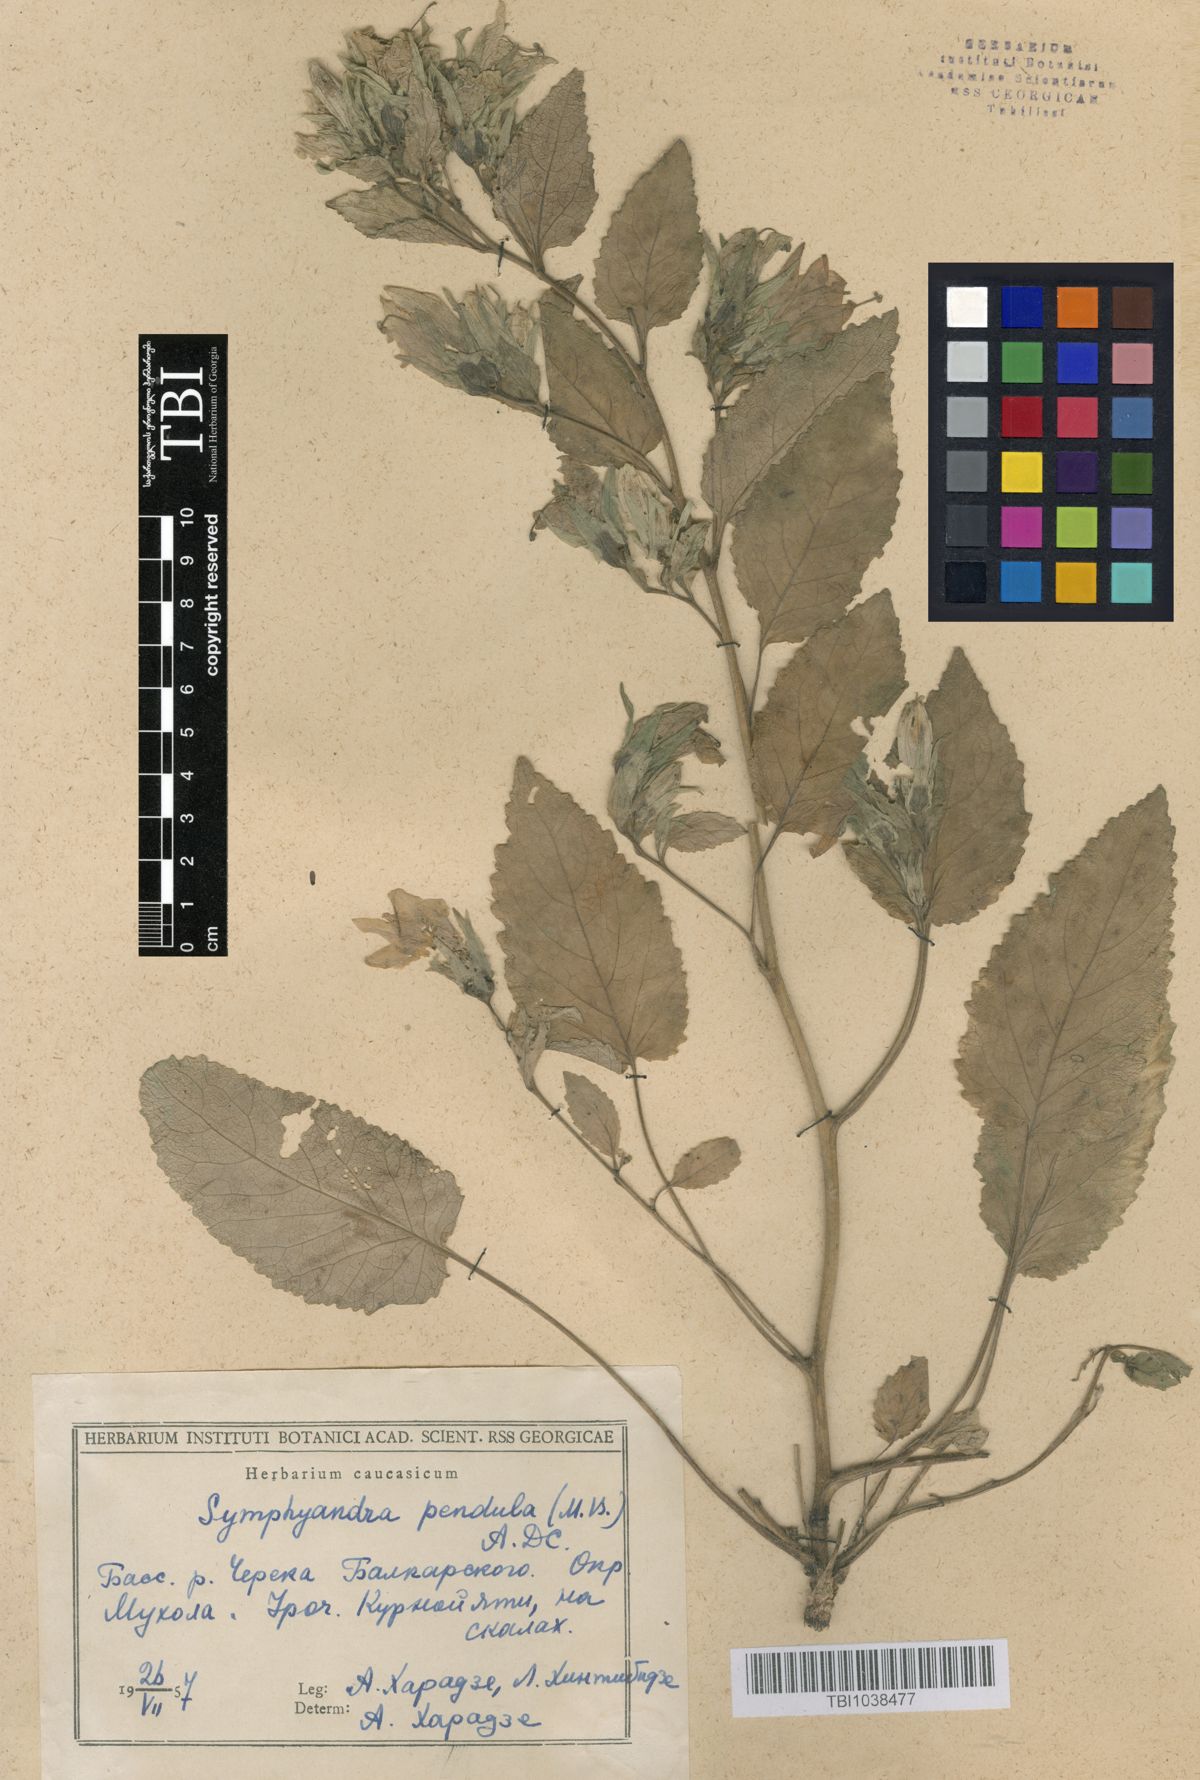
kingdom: Plantae
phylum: Tracheophyta
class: Magnoliopsida
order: Asterales
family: Campanulaceae
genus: Campanula
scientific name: Campanula pendula
